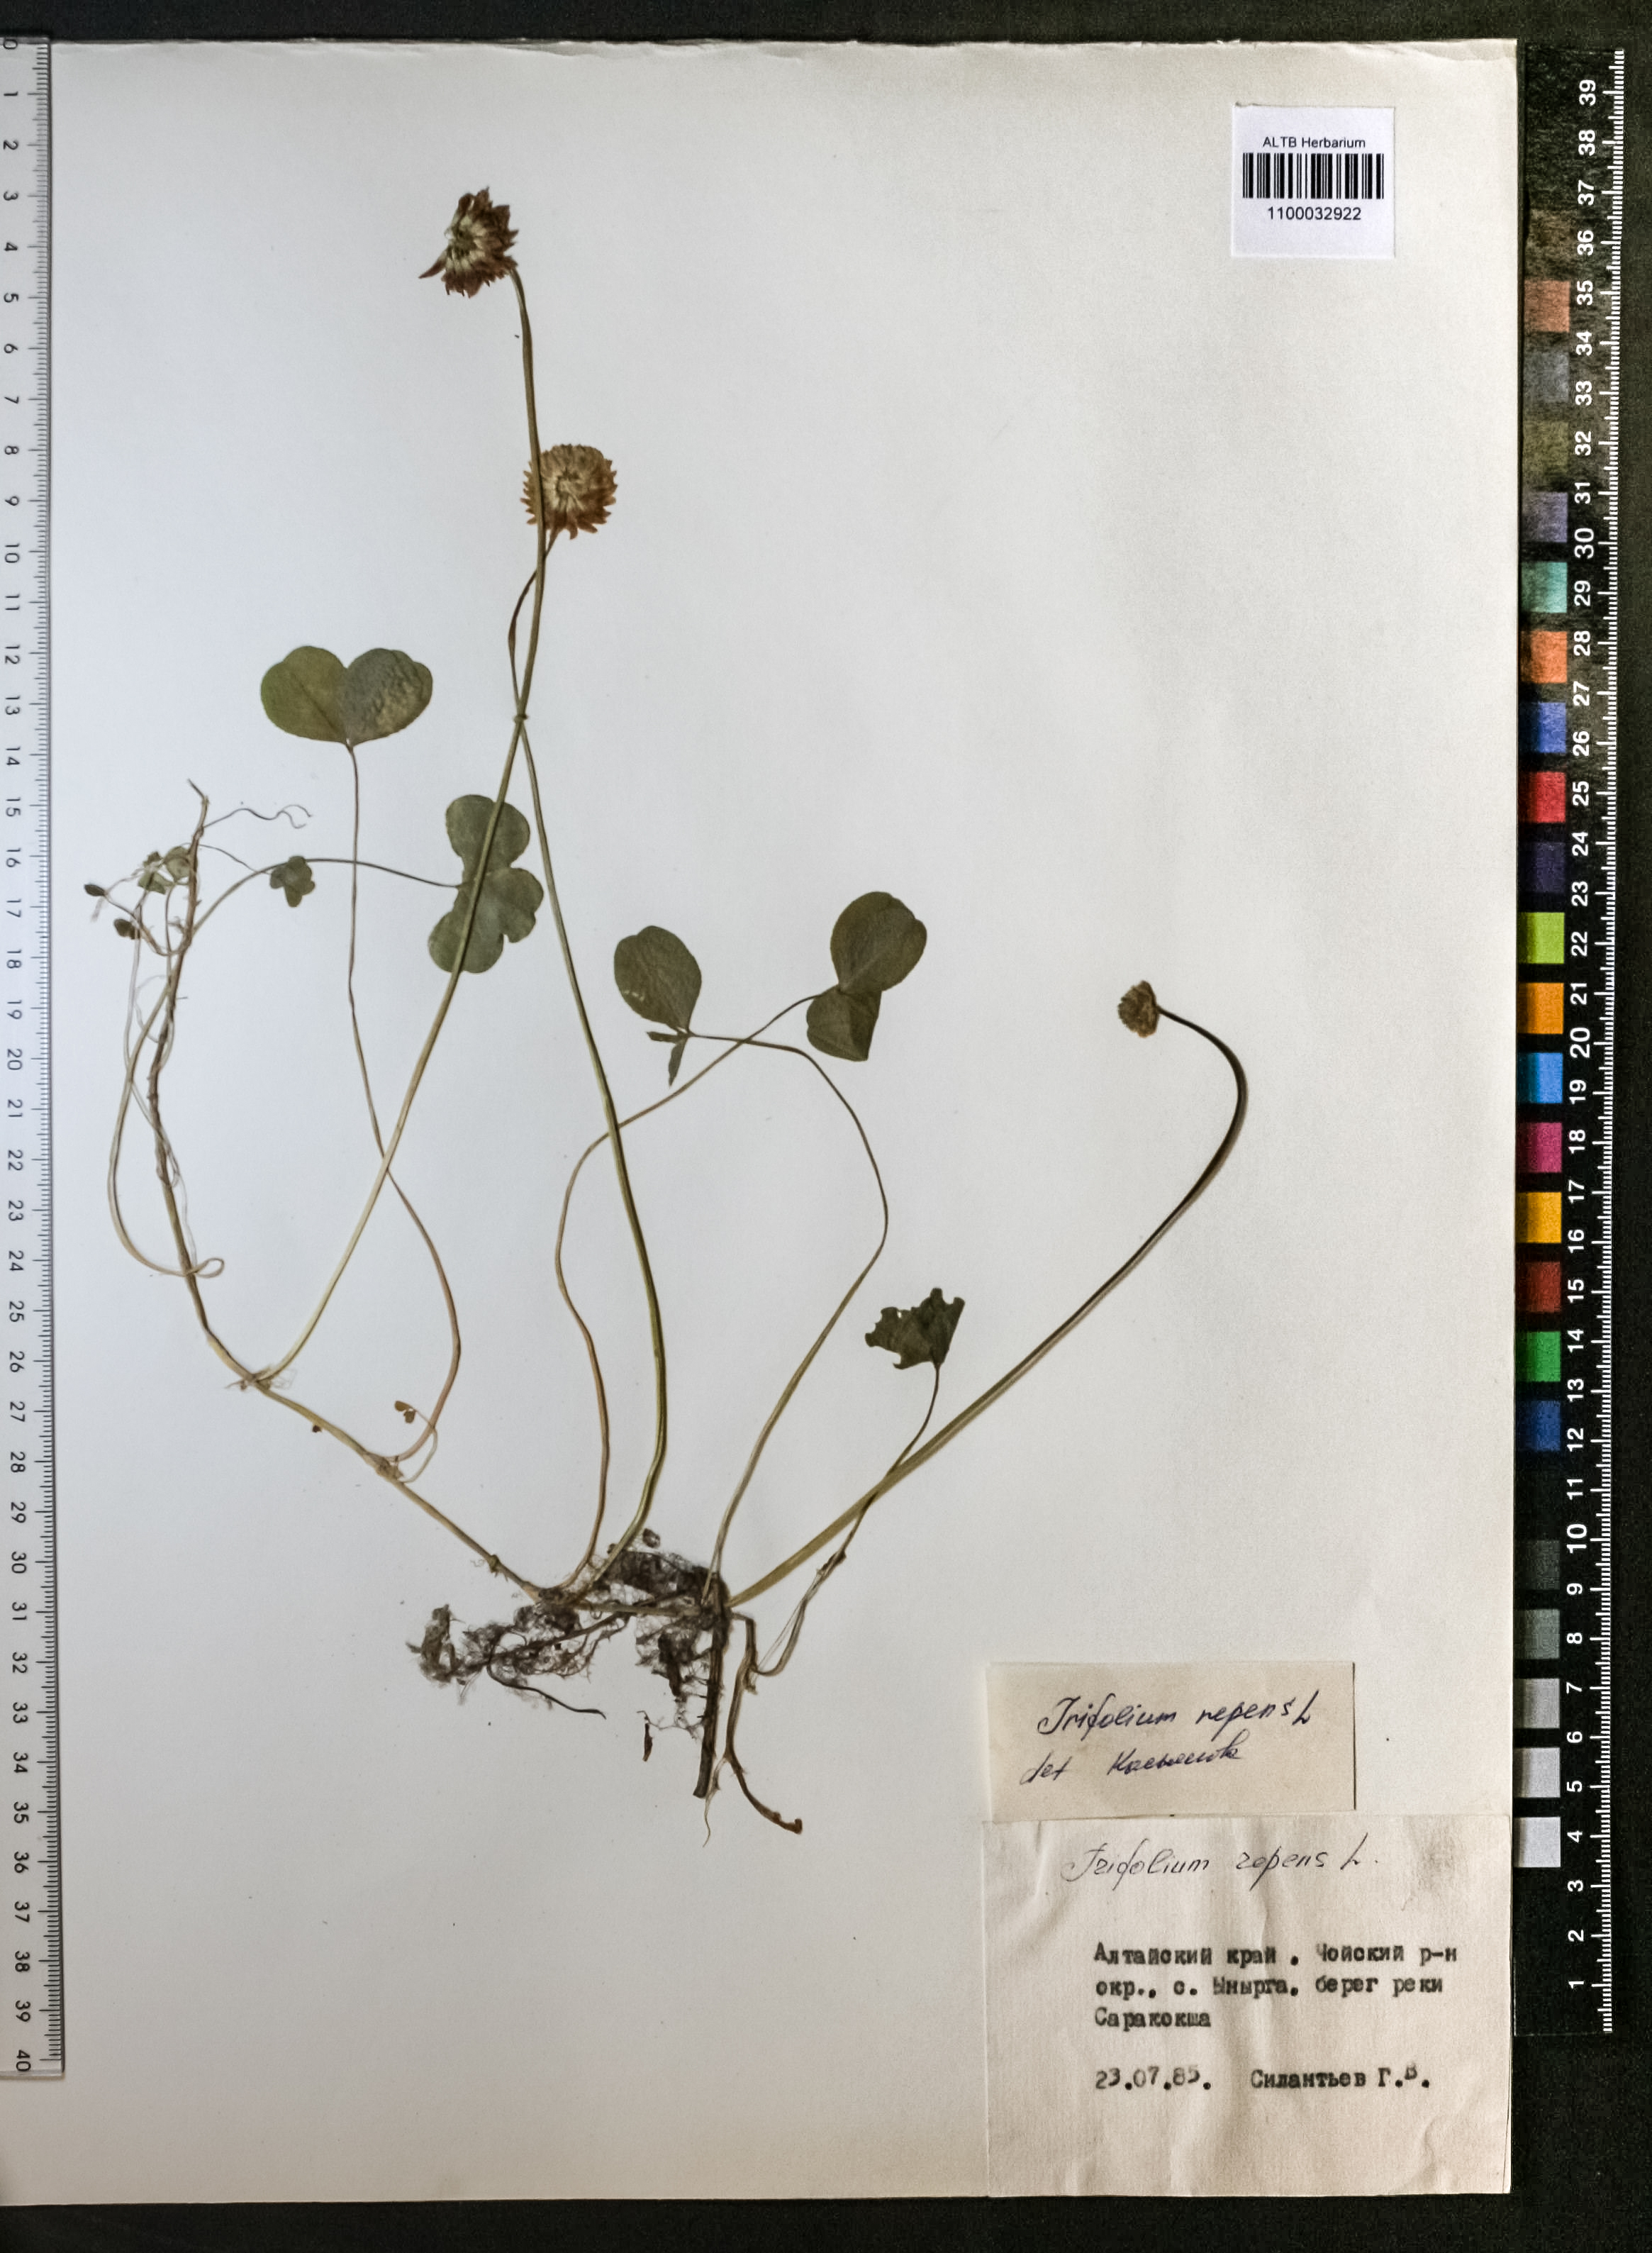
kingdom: Plantae
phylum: Tracheophyta
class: Magnoliopsida
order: Fabales
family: Fabaceae
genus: Trifolium
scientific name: Trifolium repens
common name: White clover
